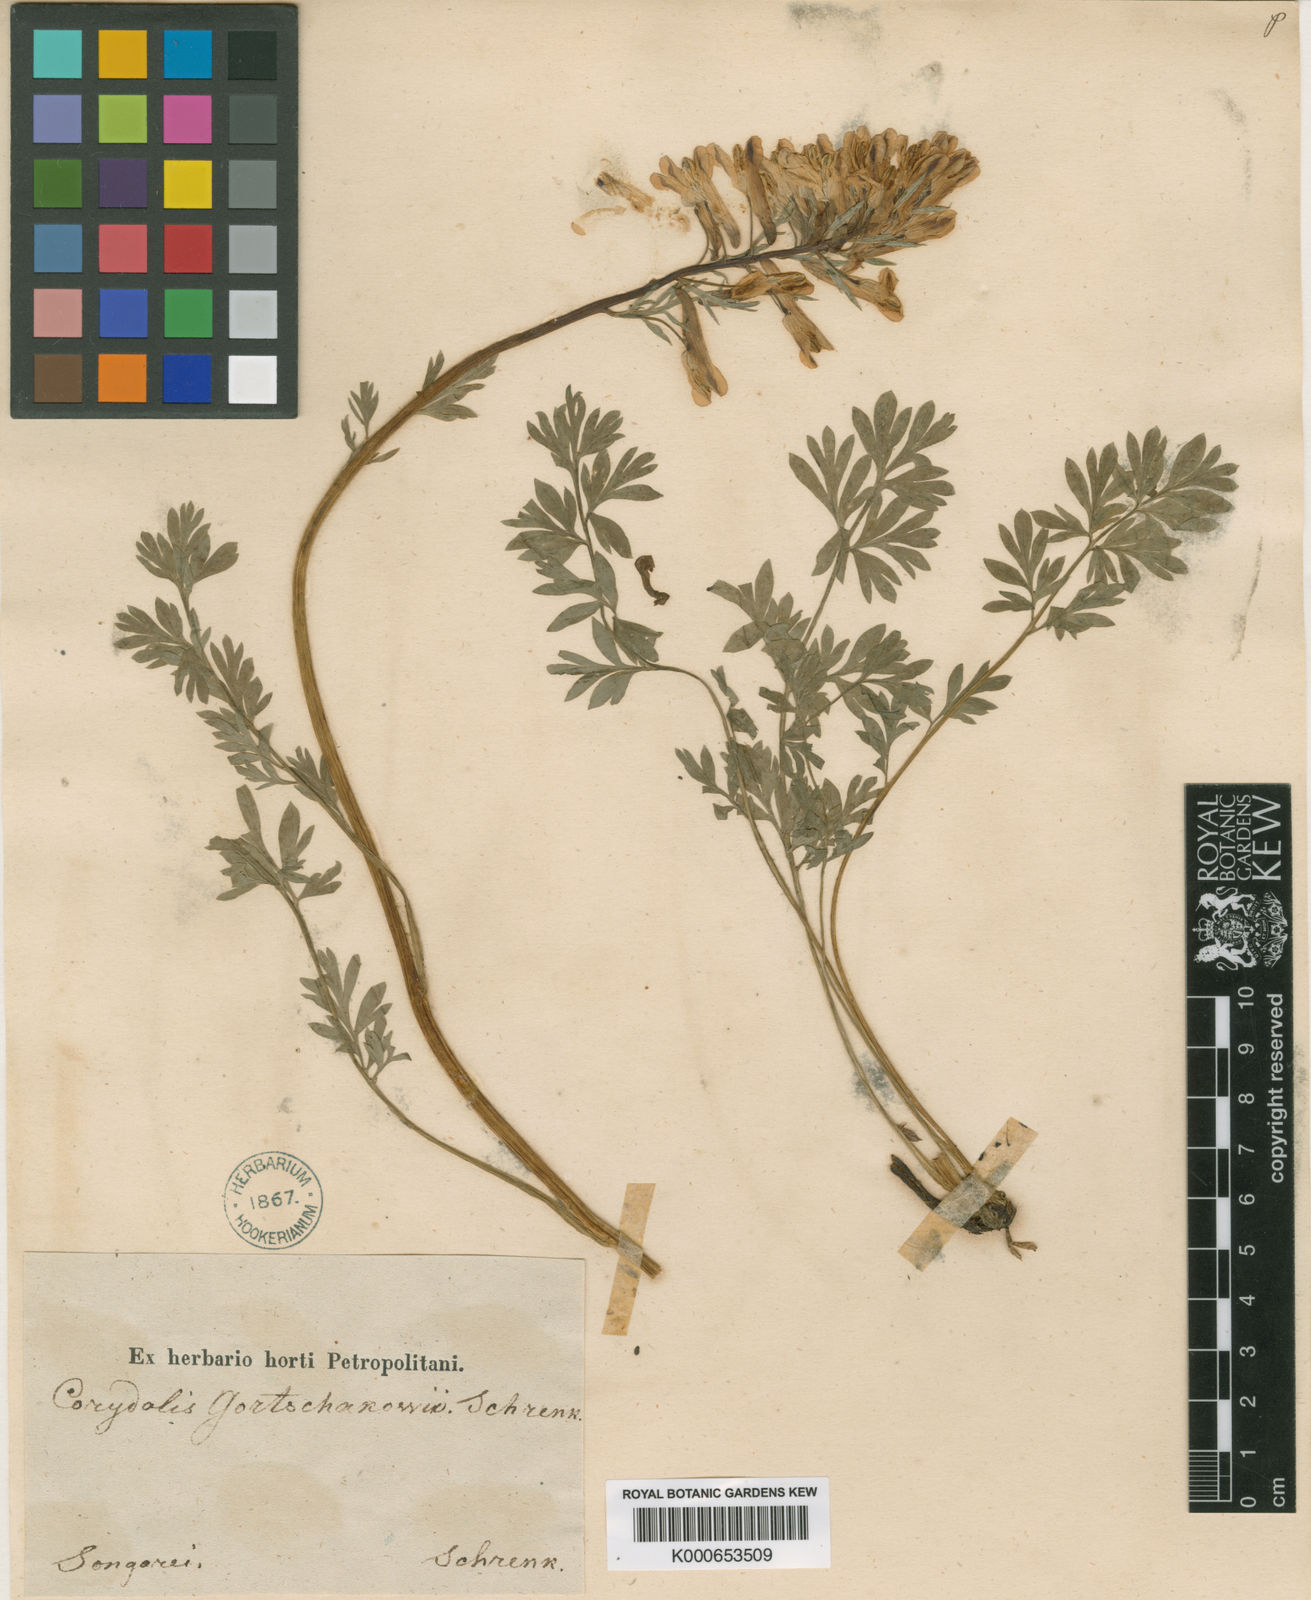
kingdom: Plantae
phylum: Tracheophyta
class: Magnoliopsida
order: Ranunculales
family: Papaveraceae
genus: Corydalis
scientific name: Corydalis gortschakovii
